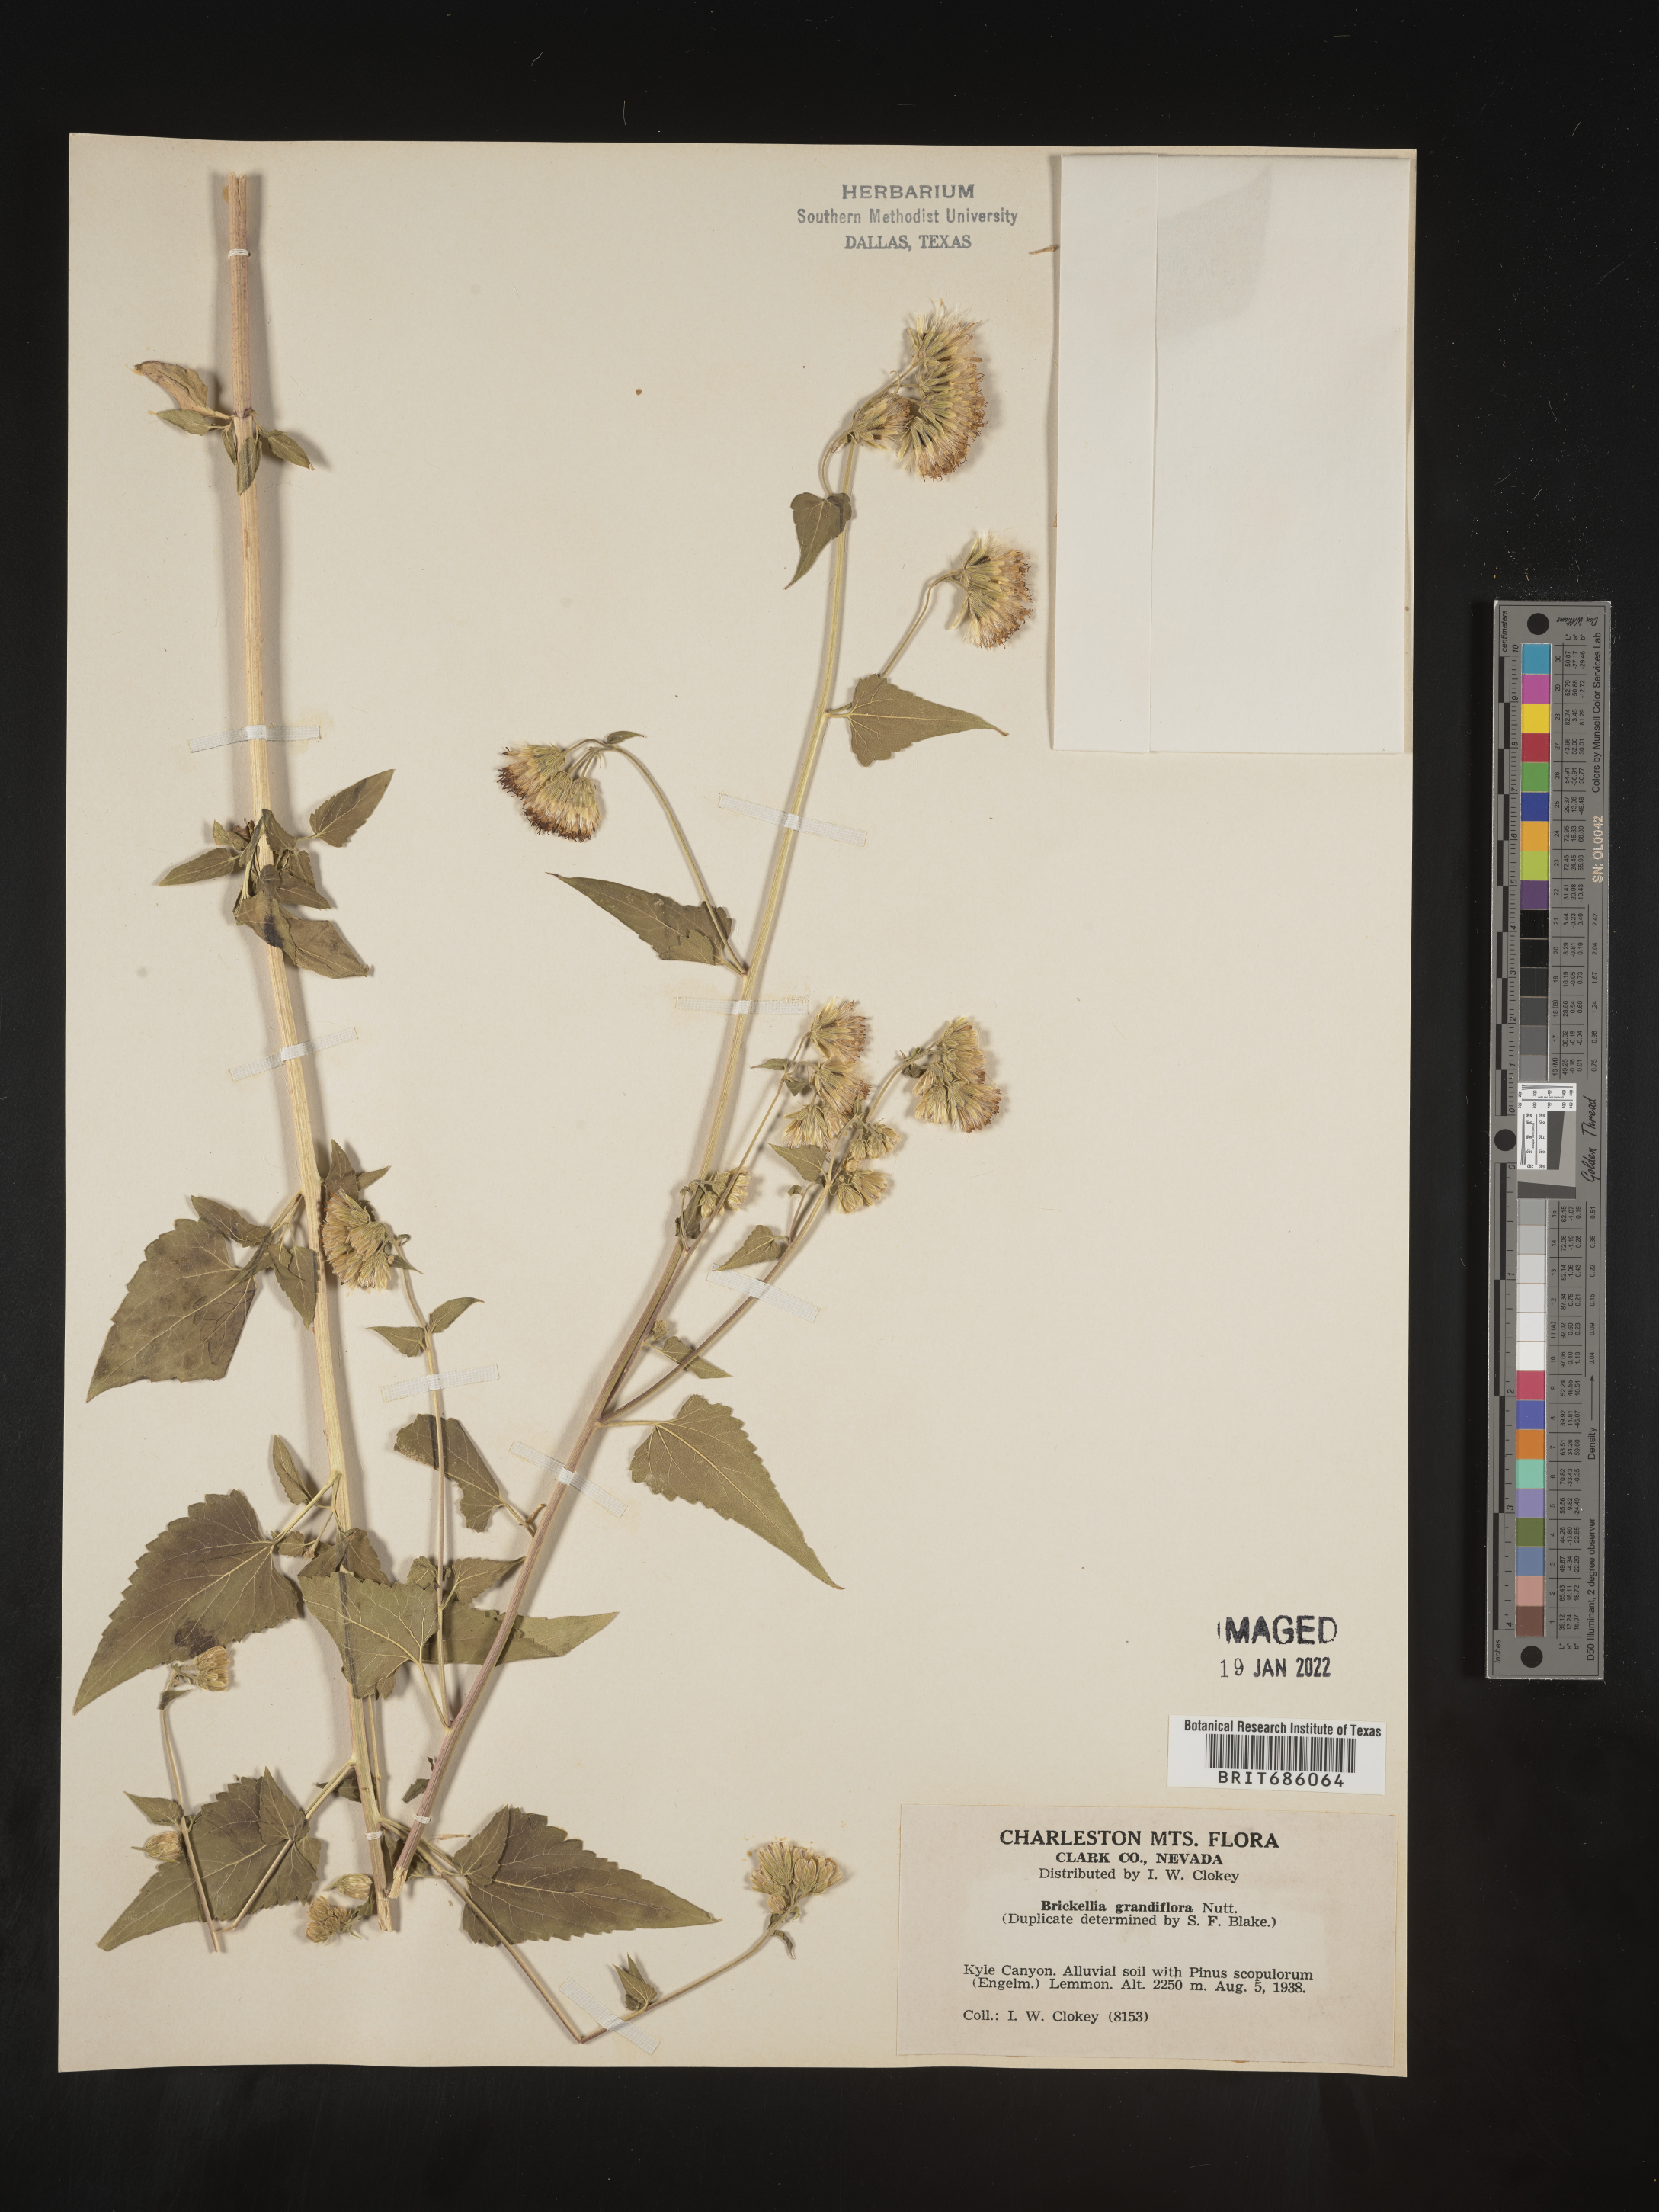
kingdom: Plantae
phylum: Tracheophyta
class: Magnoliopsida
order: Asterales
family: Asteraceae
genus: Brickellia
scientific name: Brickellia grandiflora
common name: Large-flowered brickellia
